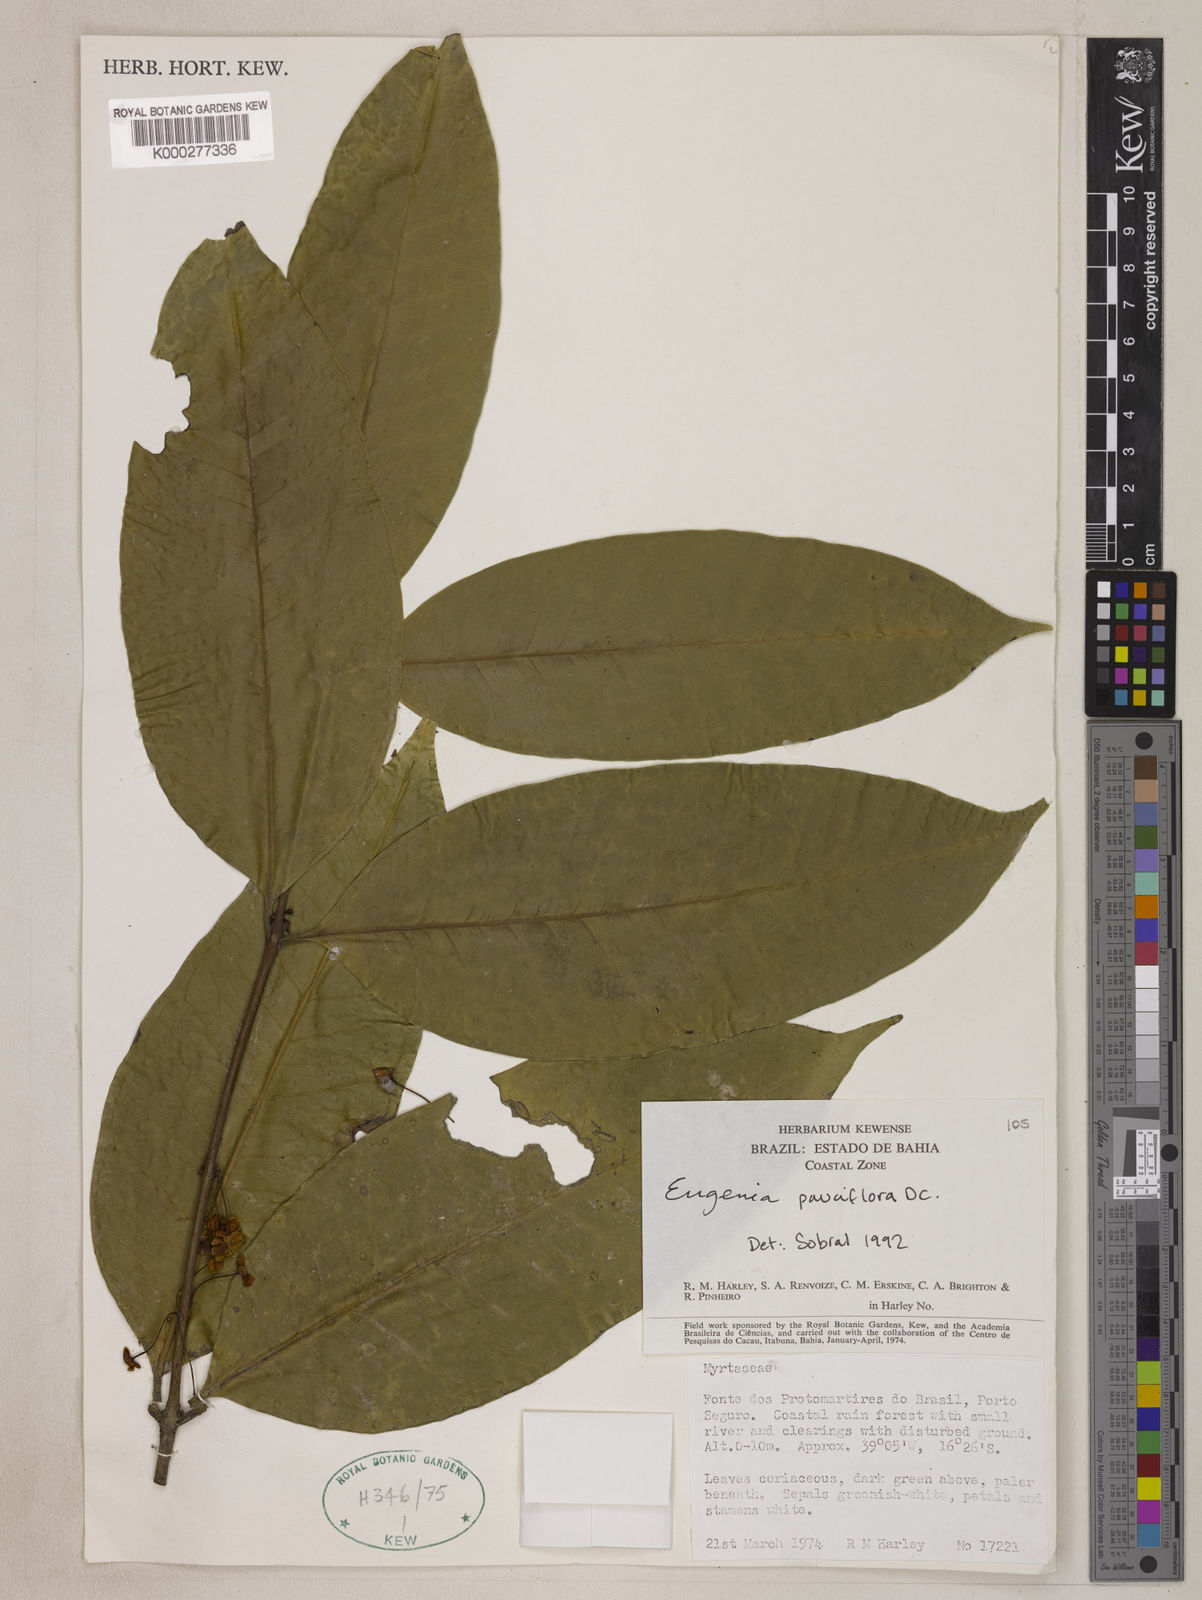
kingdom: Plantae
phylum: Tracheophyta
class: Magnoliopsida
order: Myrtales
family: Myrtaceae
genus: Eugenia
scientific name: Eugenia pauciflora
